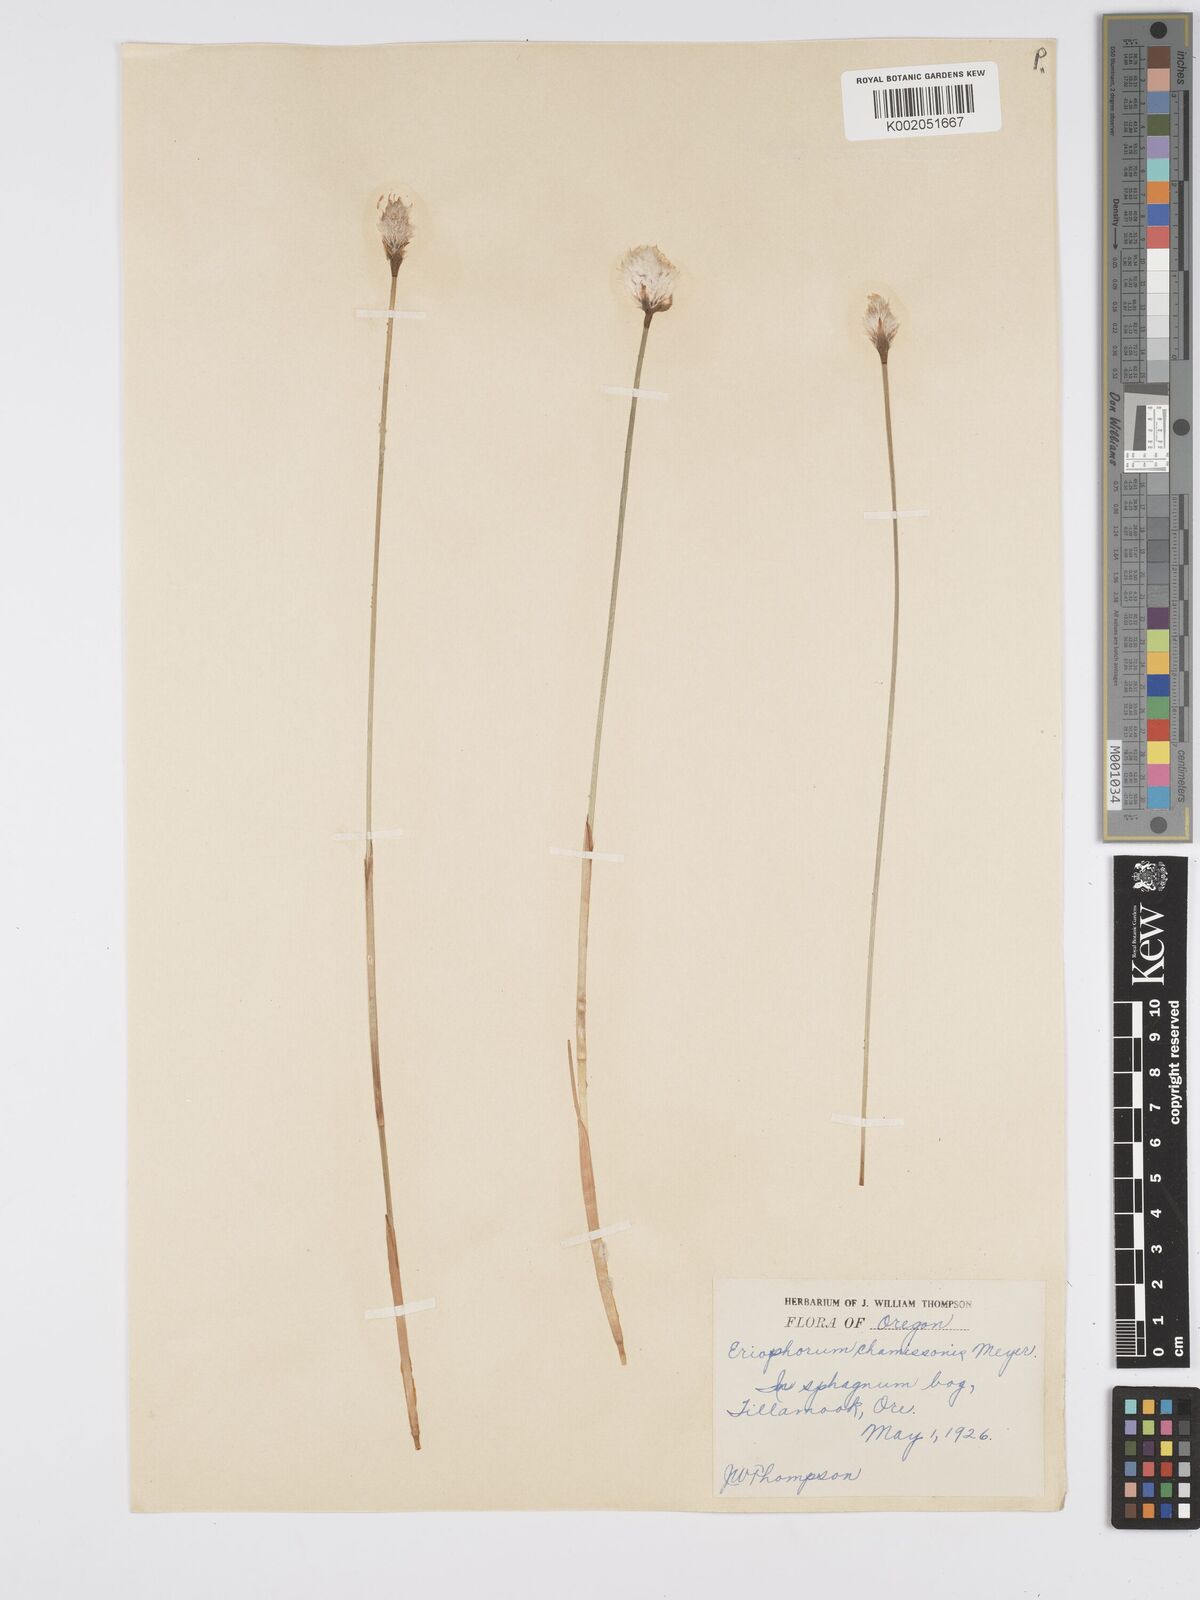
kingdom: Plantae
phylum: Tracheophyta
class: Liliopsida
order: Poales
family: Cyperaceae
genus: Eriophorum
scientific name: Eriophorum chamissonis
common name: Chamisso's cottongrass
